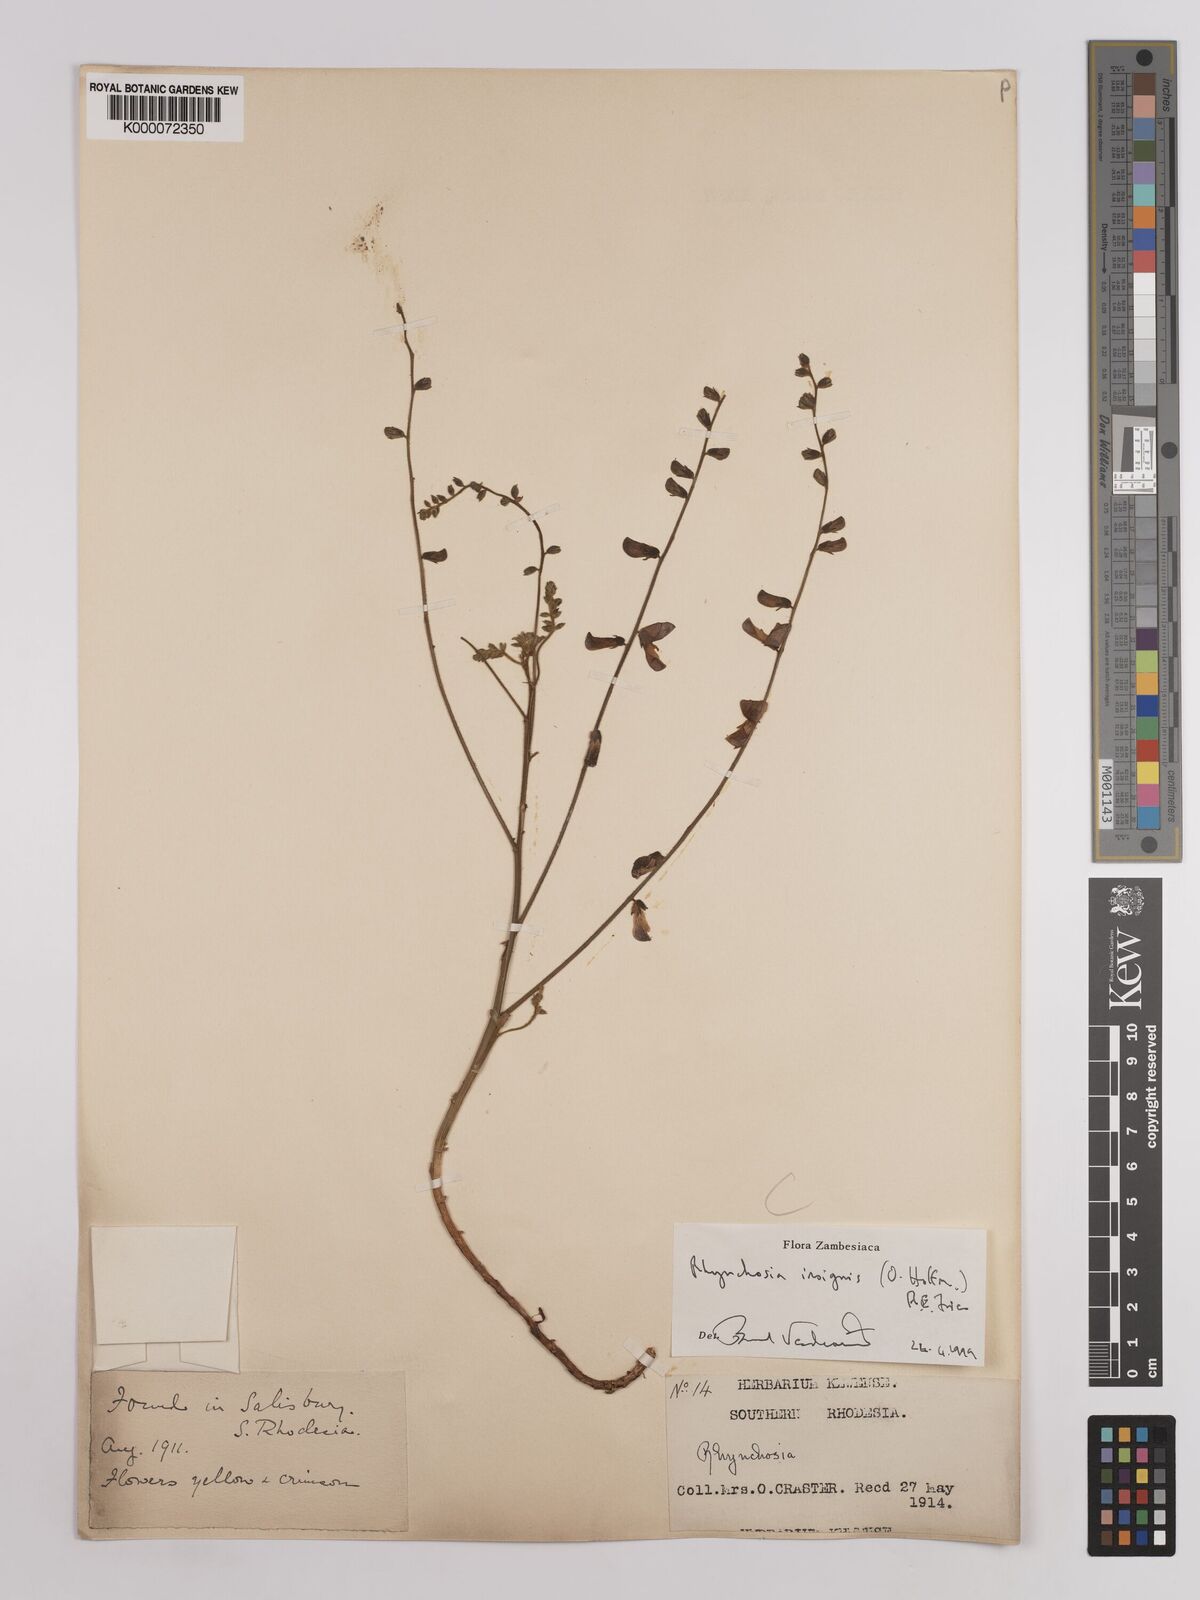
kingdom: Plantae
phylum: Tracheophyta
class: Magnoliopsida
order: Fabales
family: Fabaceae
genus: Rhynchosia
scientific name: Rhynchosia insignis
